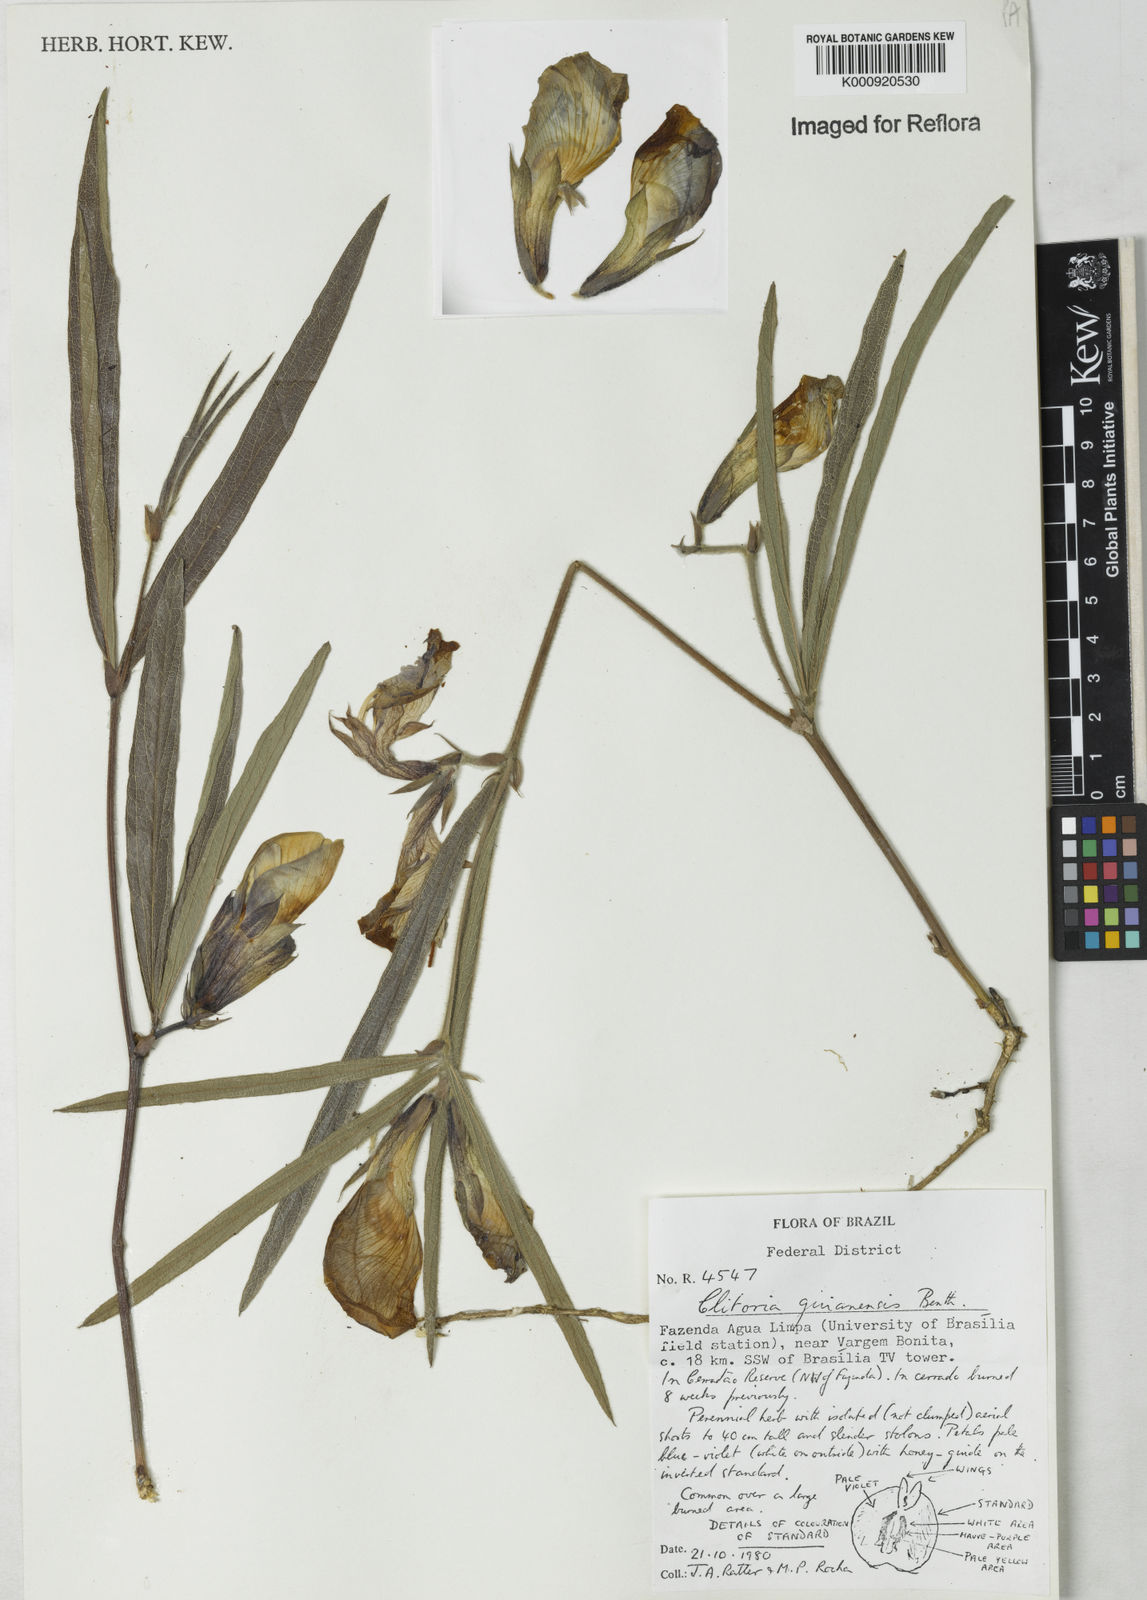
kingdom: Plantae
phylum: Tracheophyta
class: Magnoliopsida
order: Fabales
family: Fabaceae
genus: Clitoria
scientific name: Clitoria guianensis
